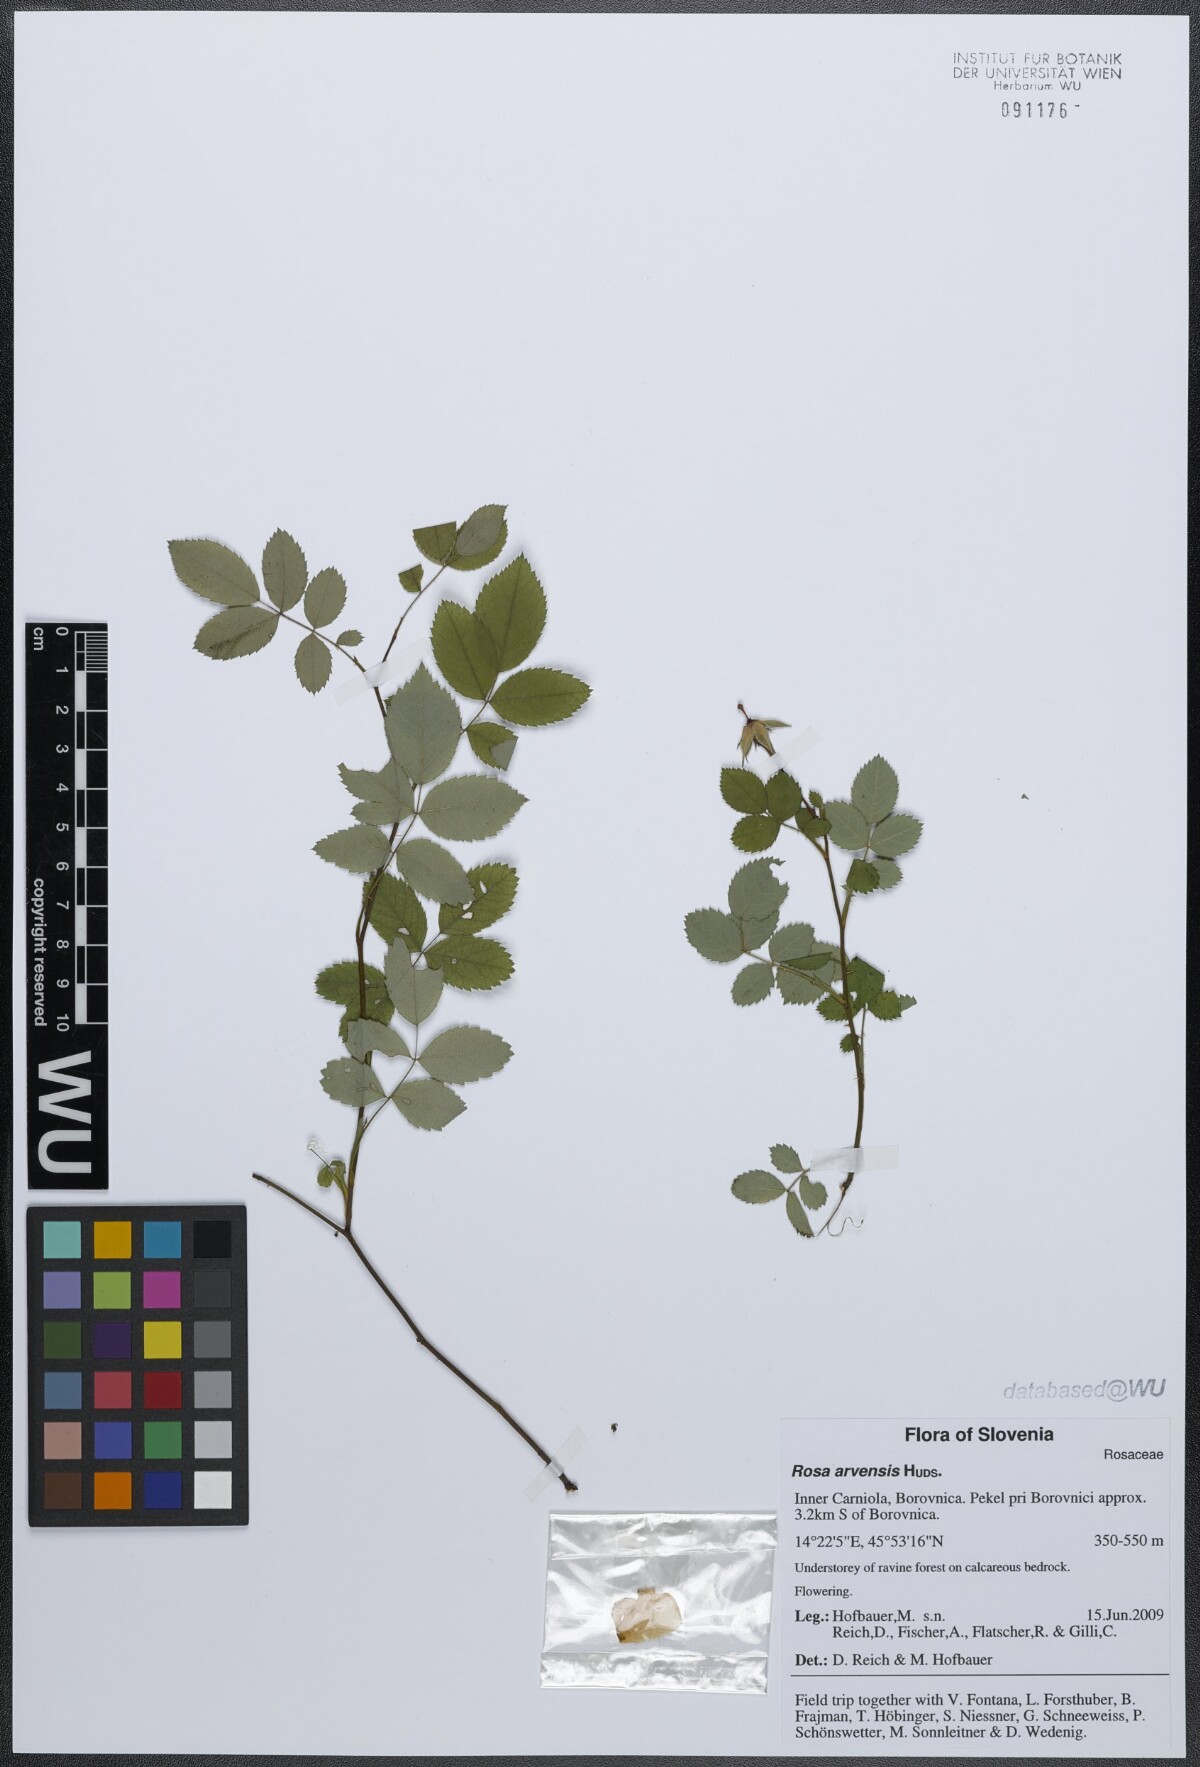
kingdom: Plantae
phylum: Tracheophyta
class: Magnoliopsida
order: Rosales
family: Rosaceae
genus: Rosa
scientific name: Rosa arvensis
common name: Field rose
